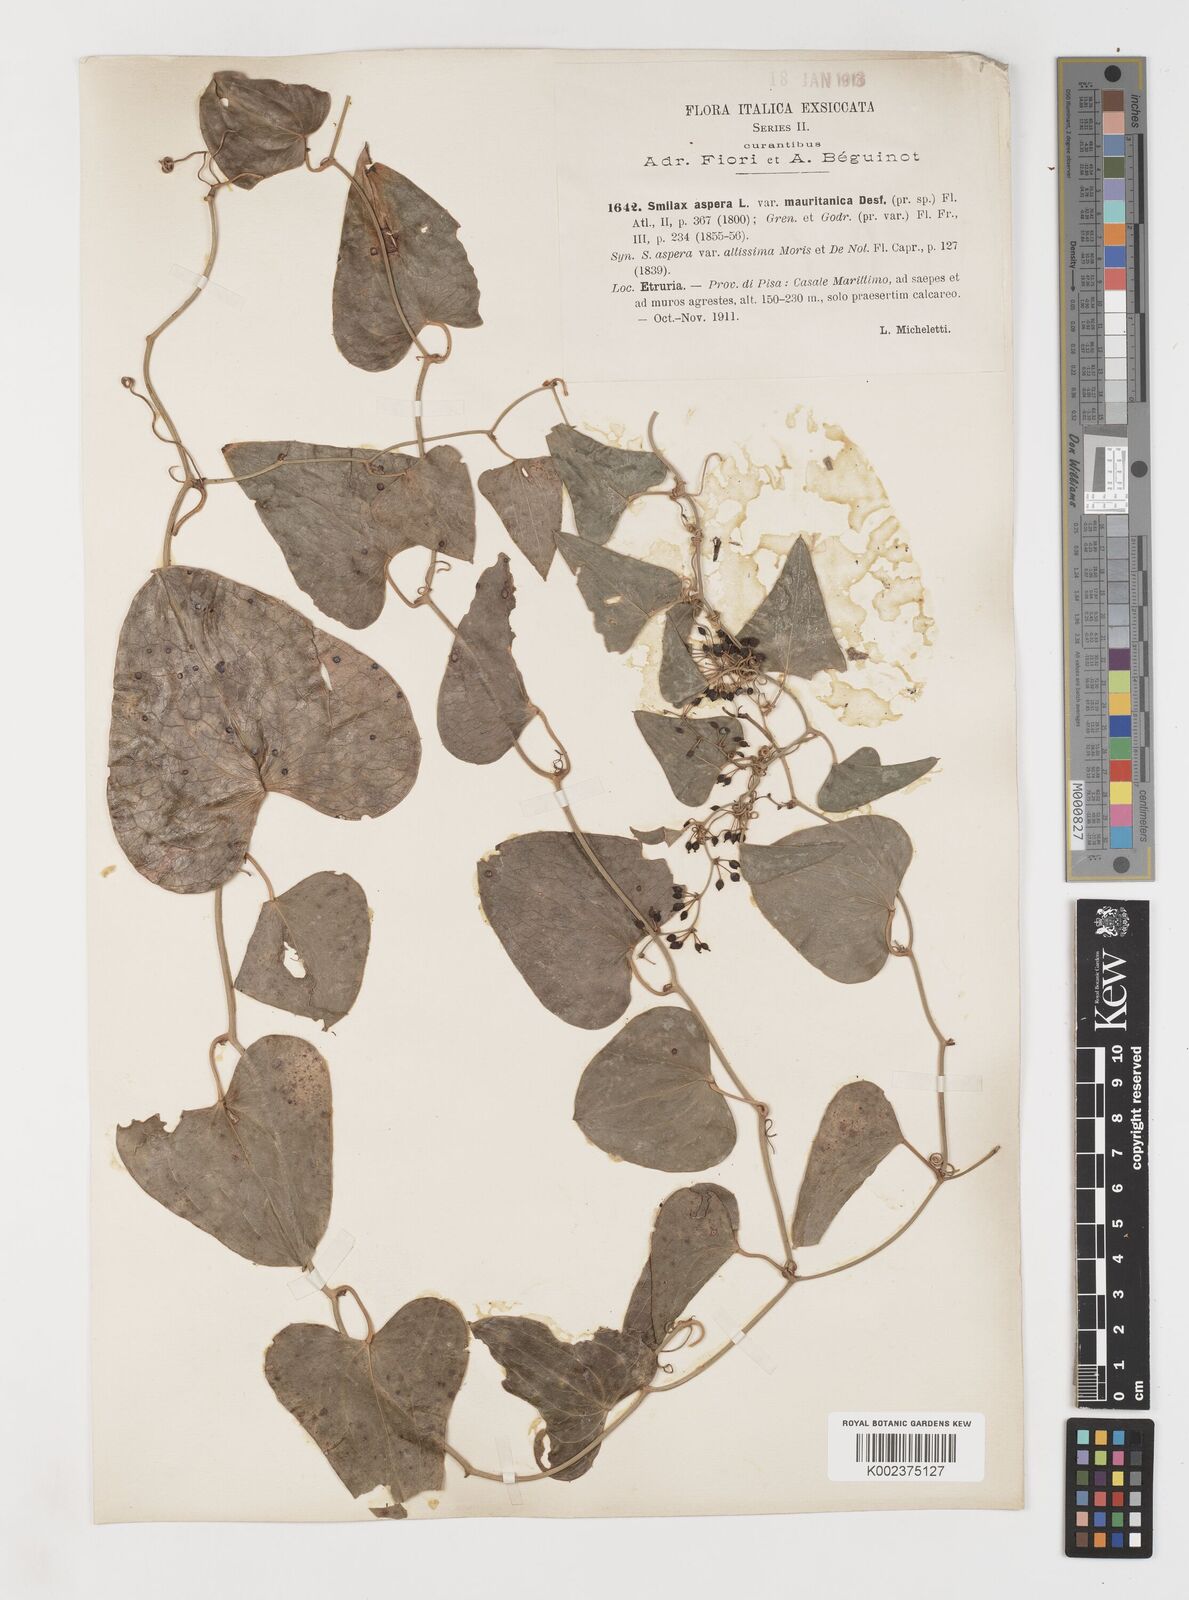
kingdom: Plantae
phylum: Tracheophyta
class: Liliopsida
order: Liliales
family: Smilacaceae
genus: Smilax
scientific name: Smilax aspera
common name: Common smilax
